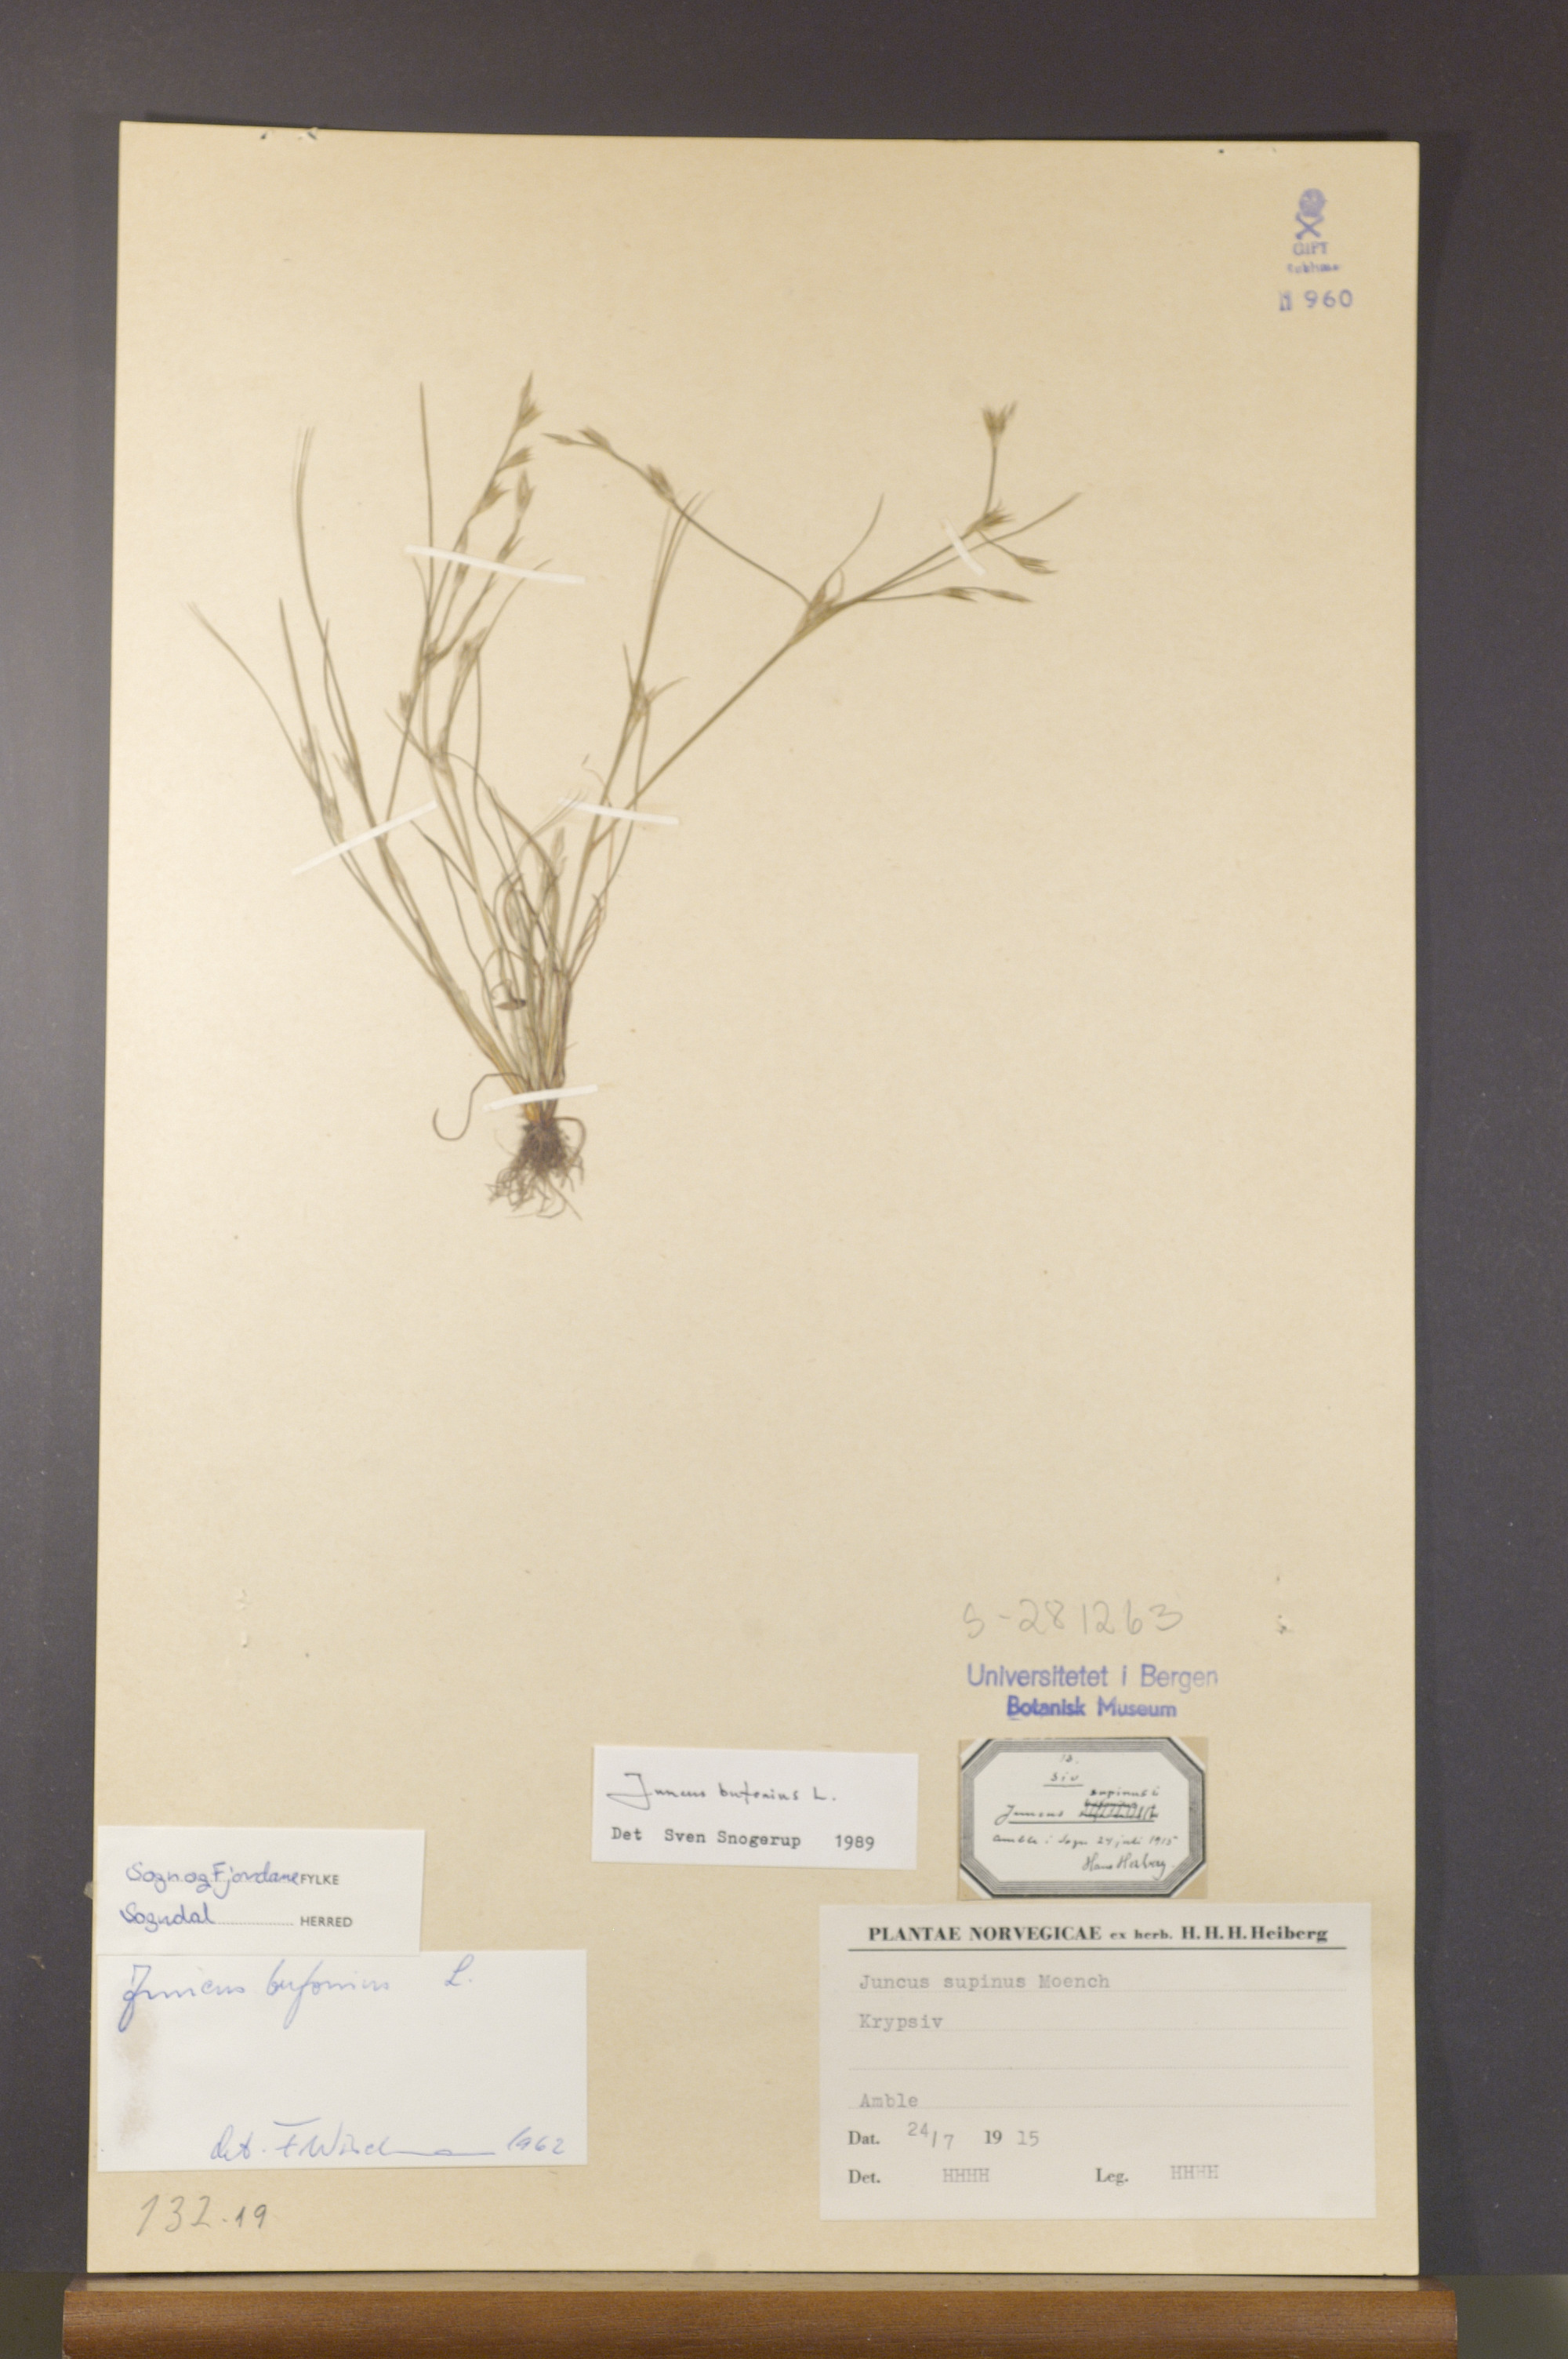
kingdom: Plantae
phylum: Tracheophyta
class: Liliopsida
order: Poales
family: Juncaceae
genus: Juncus
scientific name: Juncus bufonius
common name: Toad rush
